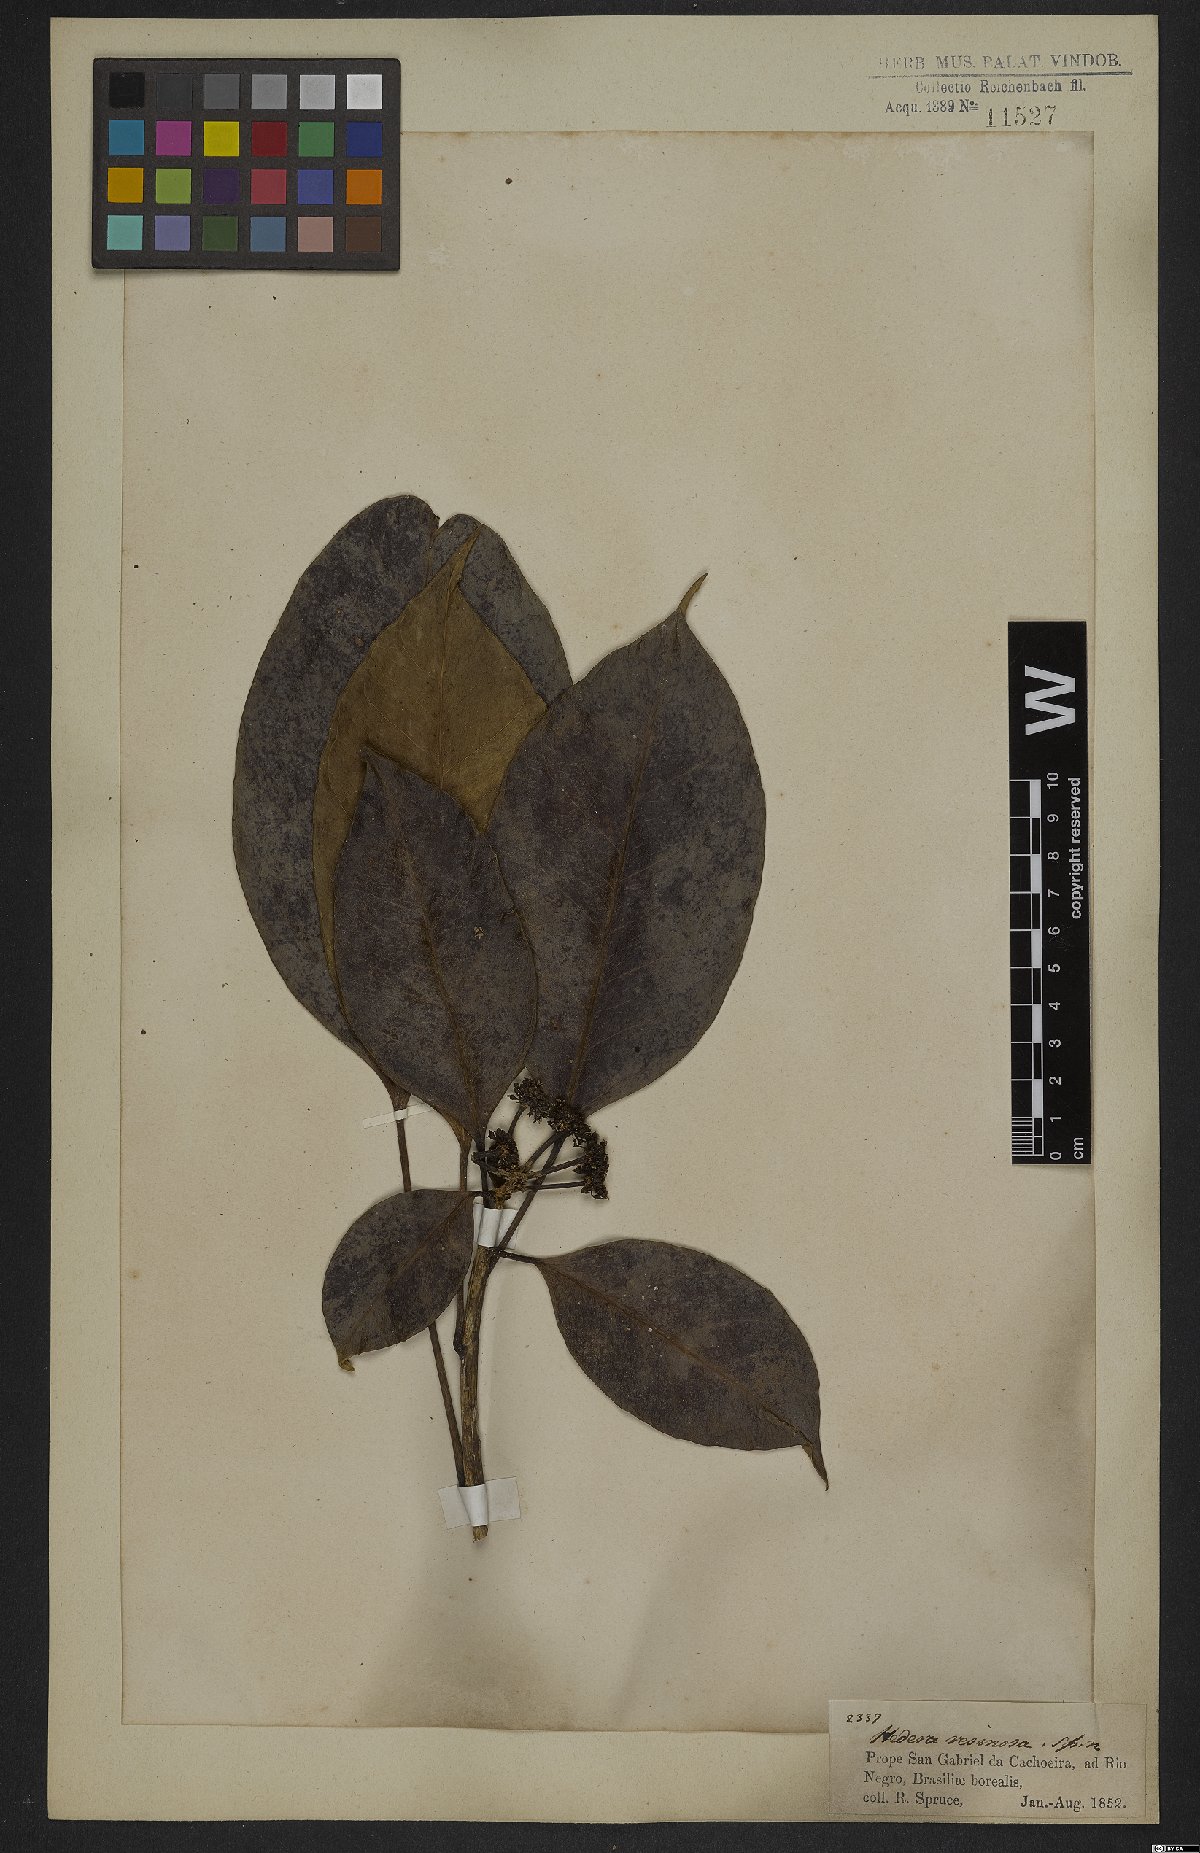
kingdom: Plantae
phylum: Tracheophyta
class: Magnoliopsida
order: Apiales
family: Araliaceae
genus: Dendropanax
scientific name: Dendropanax resinosus
